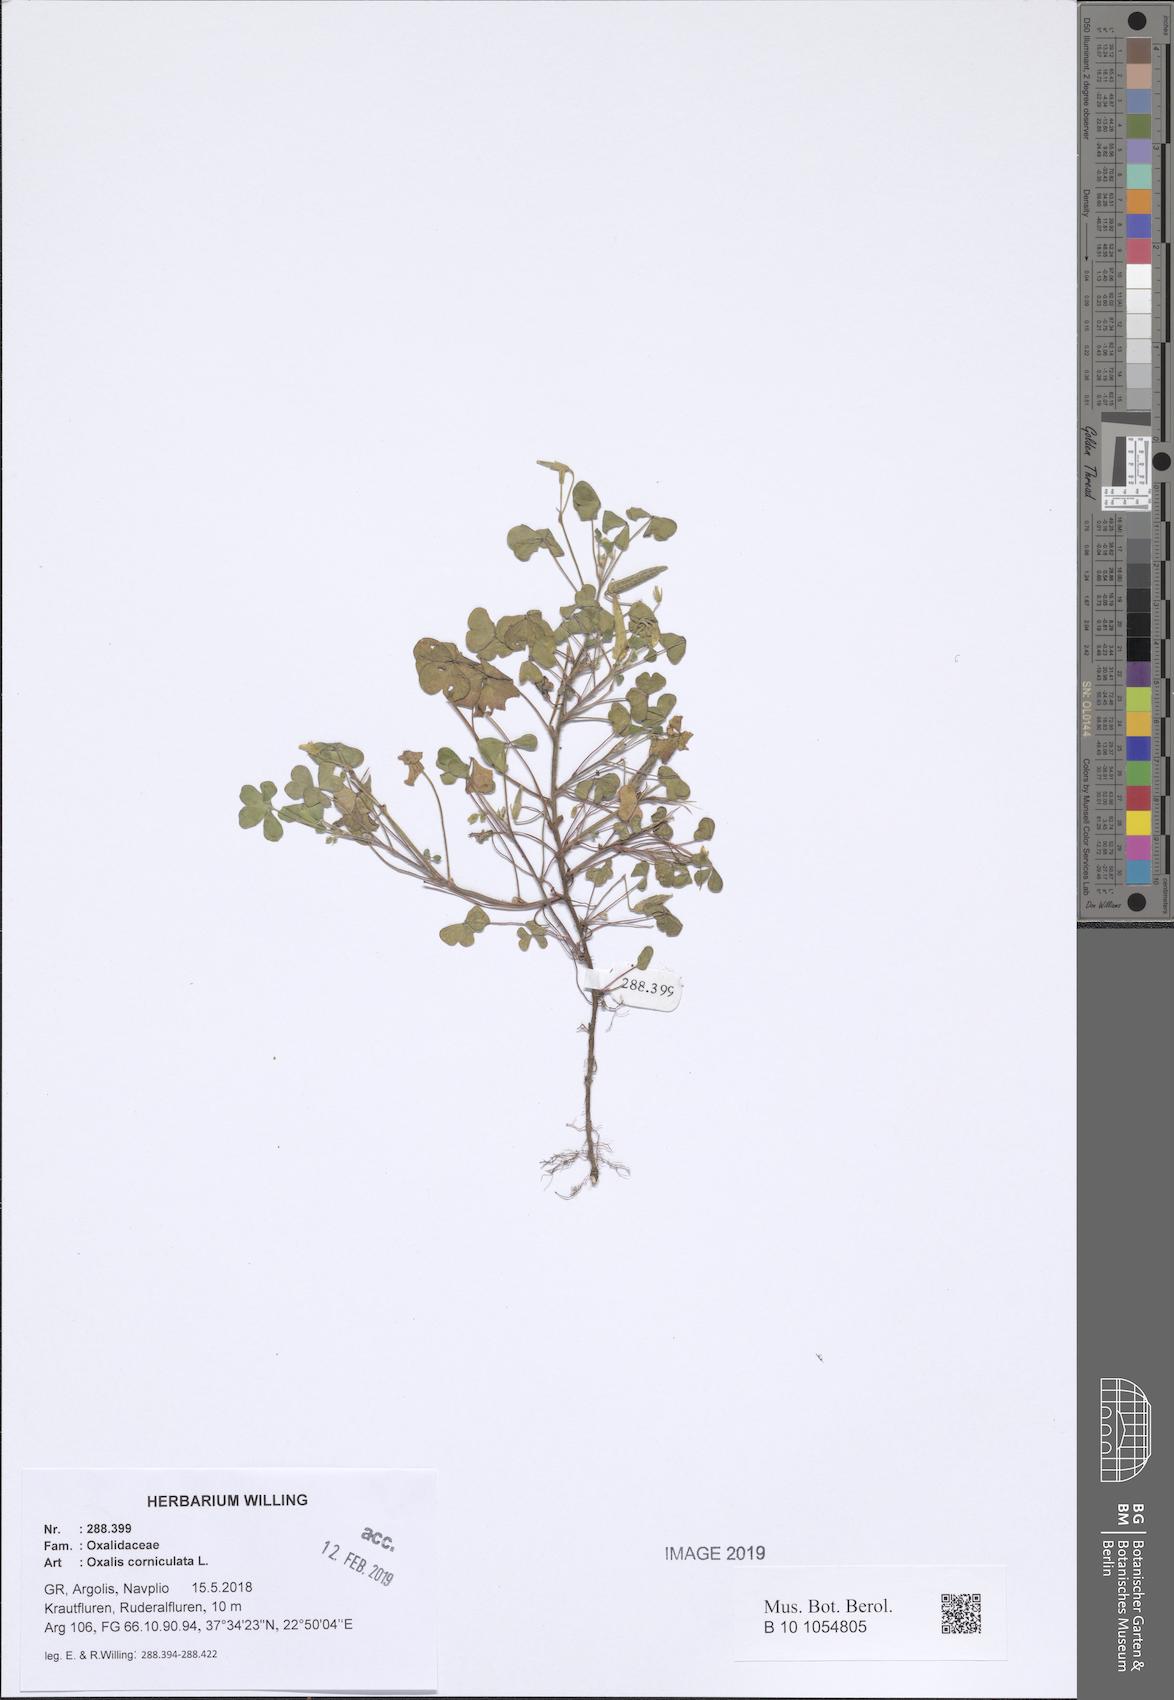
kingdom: Plantae
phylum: Tracheophyta
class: Magnoliopsida
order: Oxalidales
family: Oxalidaceae
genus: Oxalis
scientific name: Oxalis corniculata
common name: Procumbent yellow-sorrel
